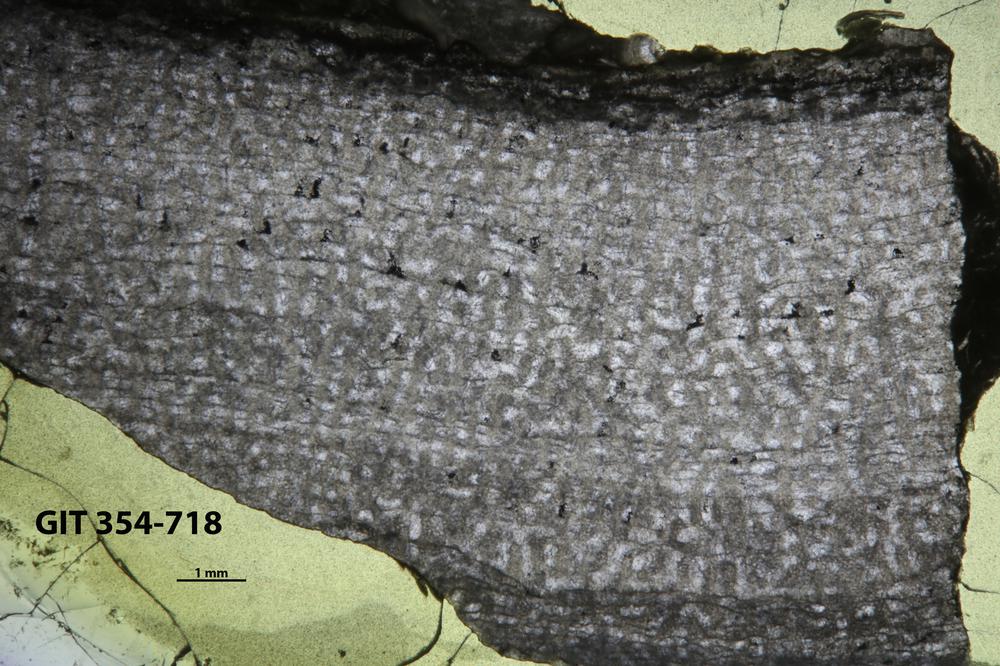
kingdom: Animalia
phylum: Porifera
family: Syringostromellidae
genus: Syringostromella
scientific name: Syringostromella
